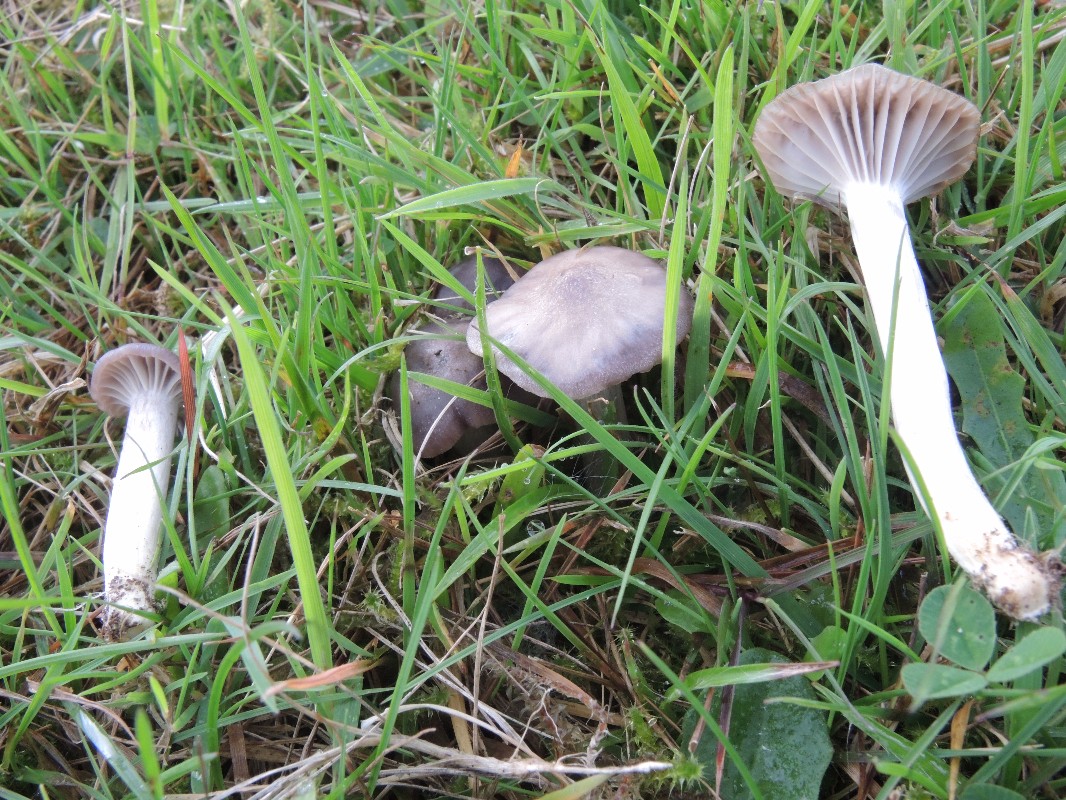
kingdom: Fungi
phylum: Basidiomycota
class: Agaricomycetes
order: Agaricales
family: Hygrophoraceae
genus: Cuphophyllus
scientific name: Cuphophyllus flavipes
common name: gulfodet vokshat
